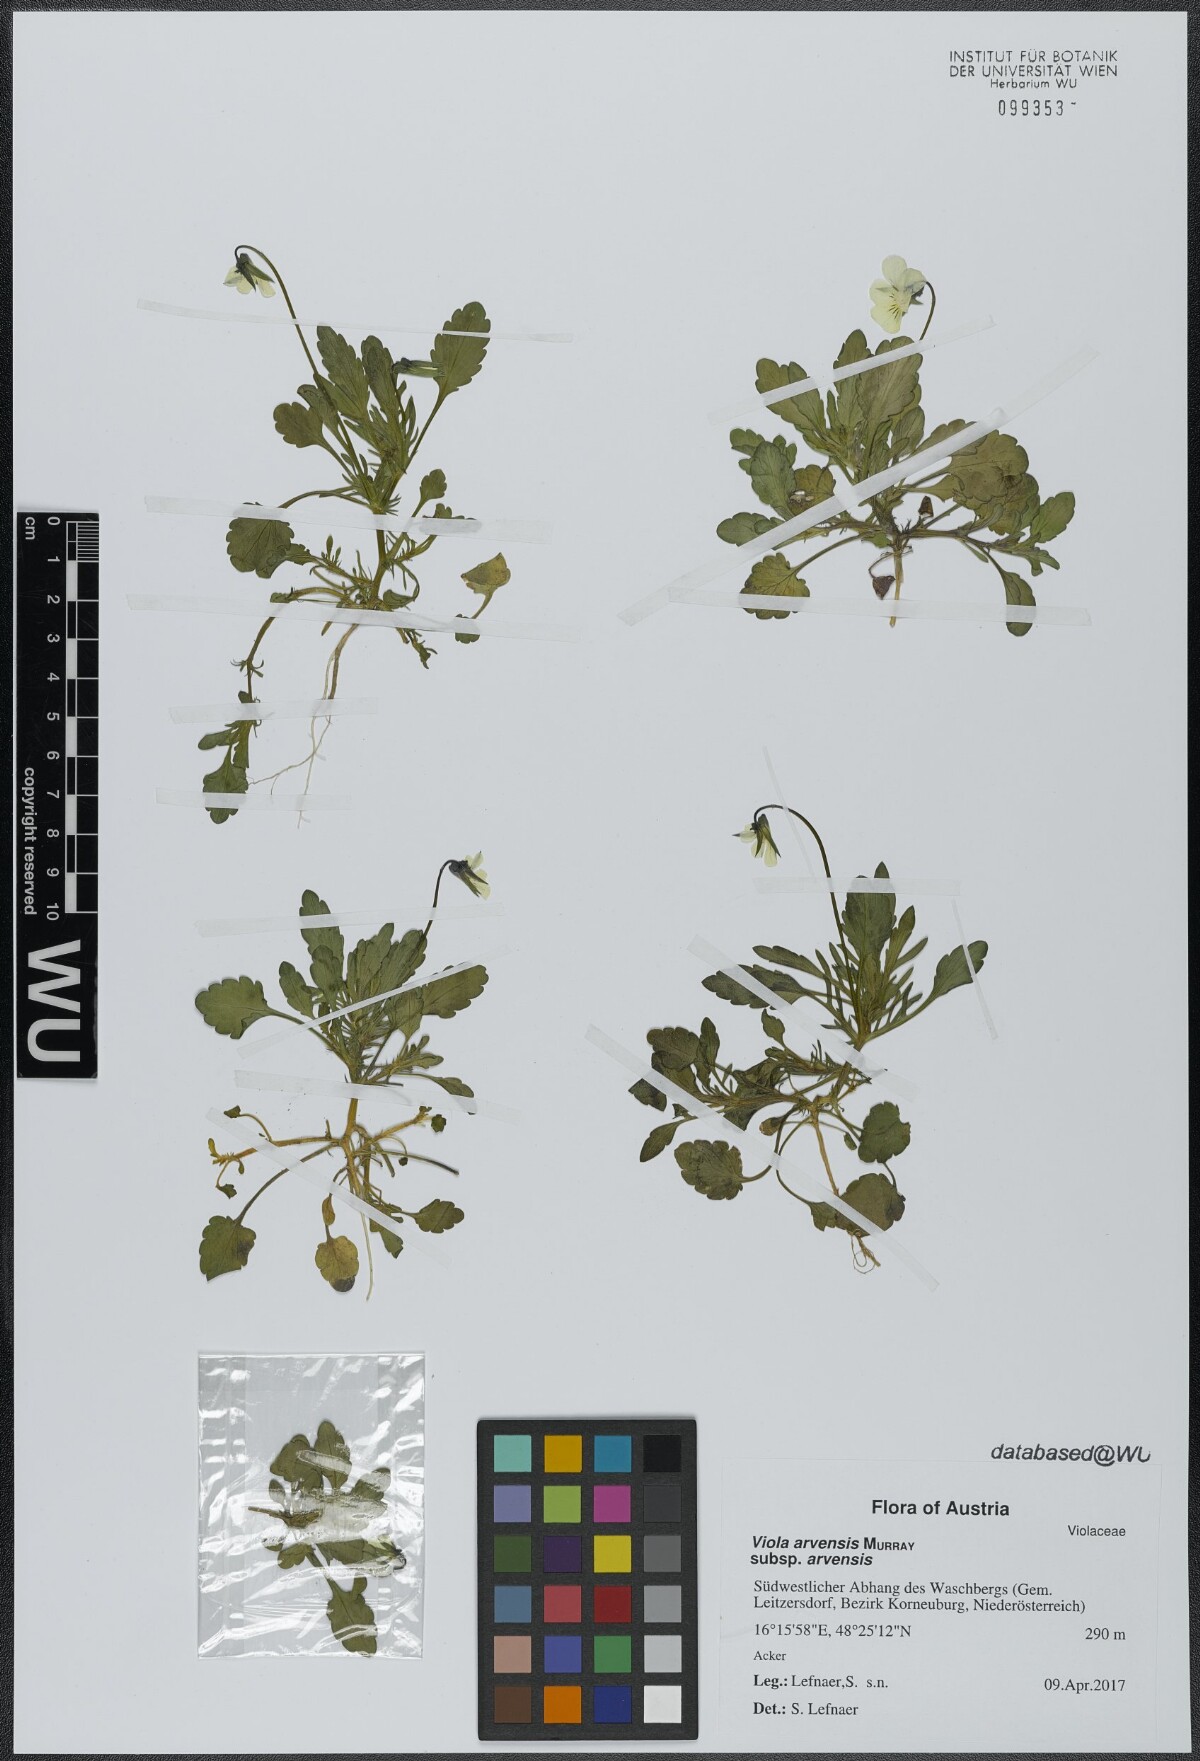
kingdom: Plantae
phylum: Tracheophyta
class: Magnoliopsida
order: Malpighiales
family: Violaceae
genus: Viola
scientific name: Viola arvensis
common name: Field pansy
